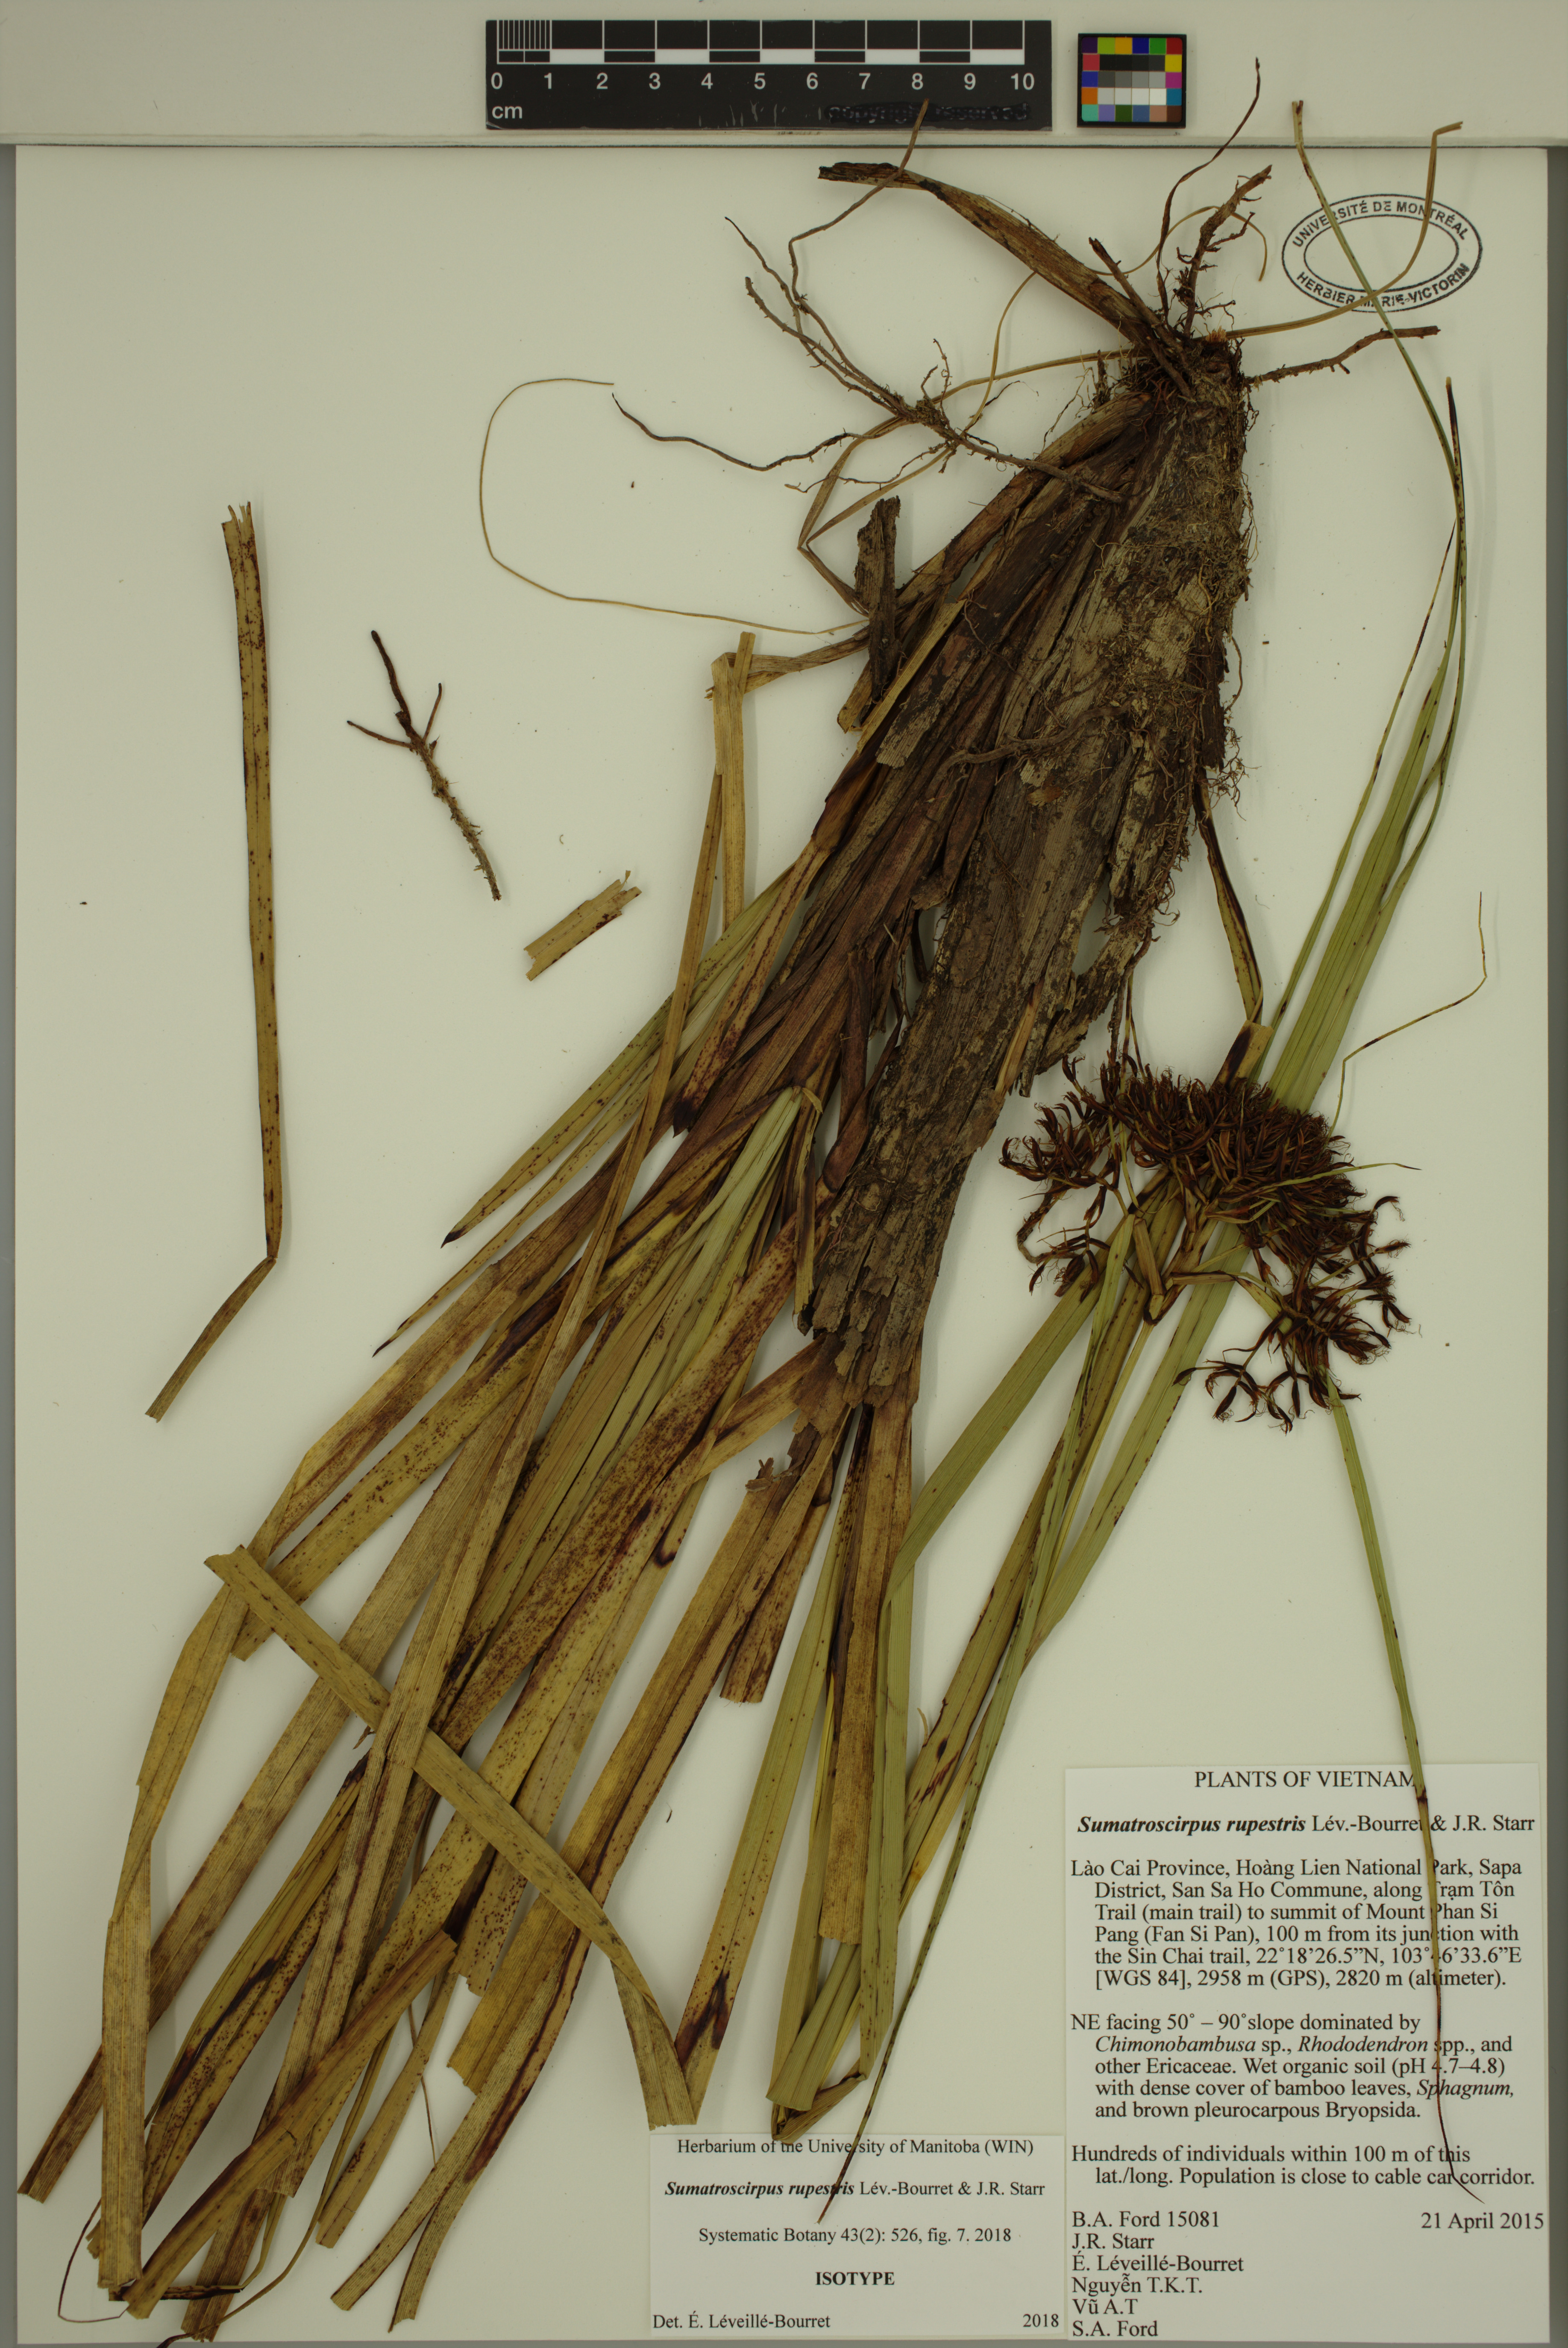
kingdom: Plantae
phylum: Tracheophyta
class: Liliopsida
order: Poales
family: Cyperaceae
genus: Sumatroscirpus
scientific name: Sumatroscirpus rupestris
